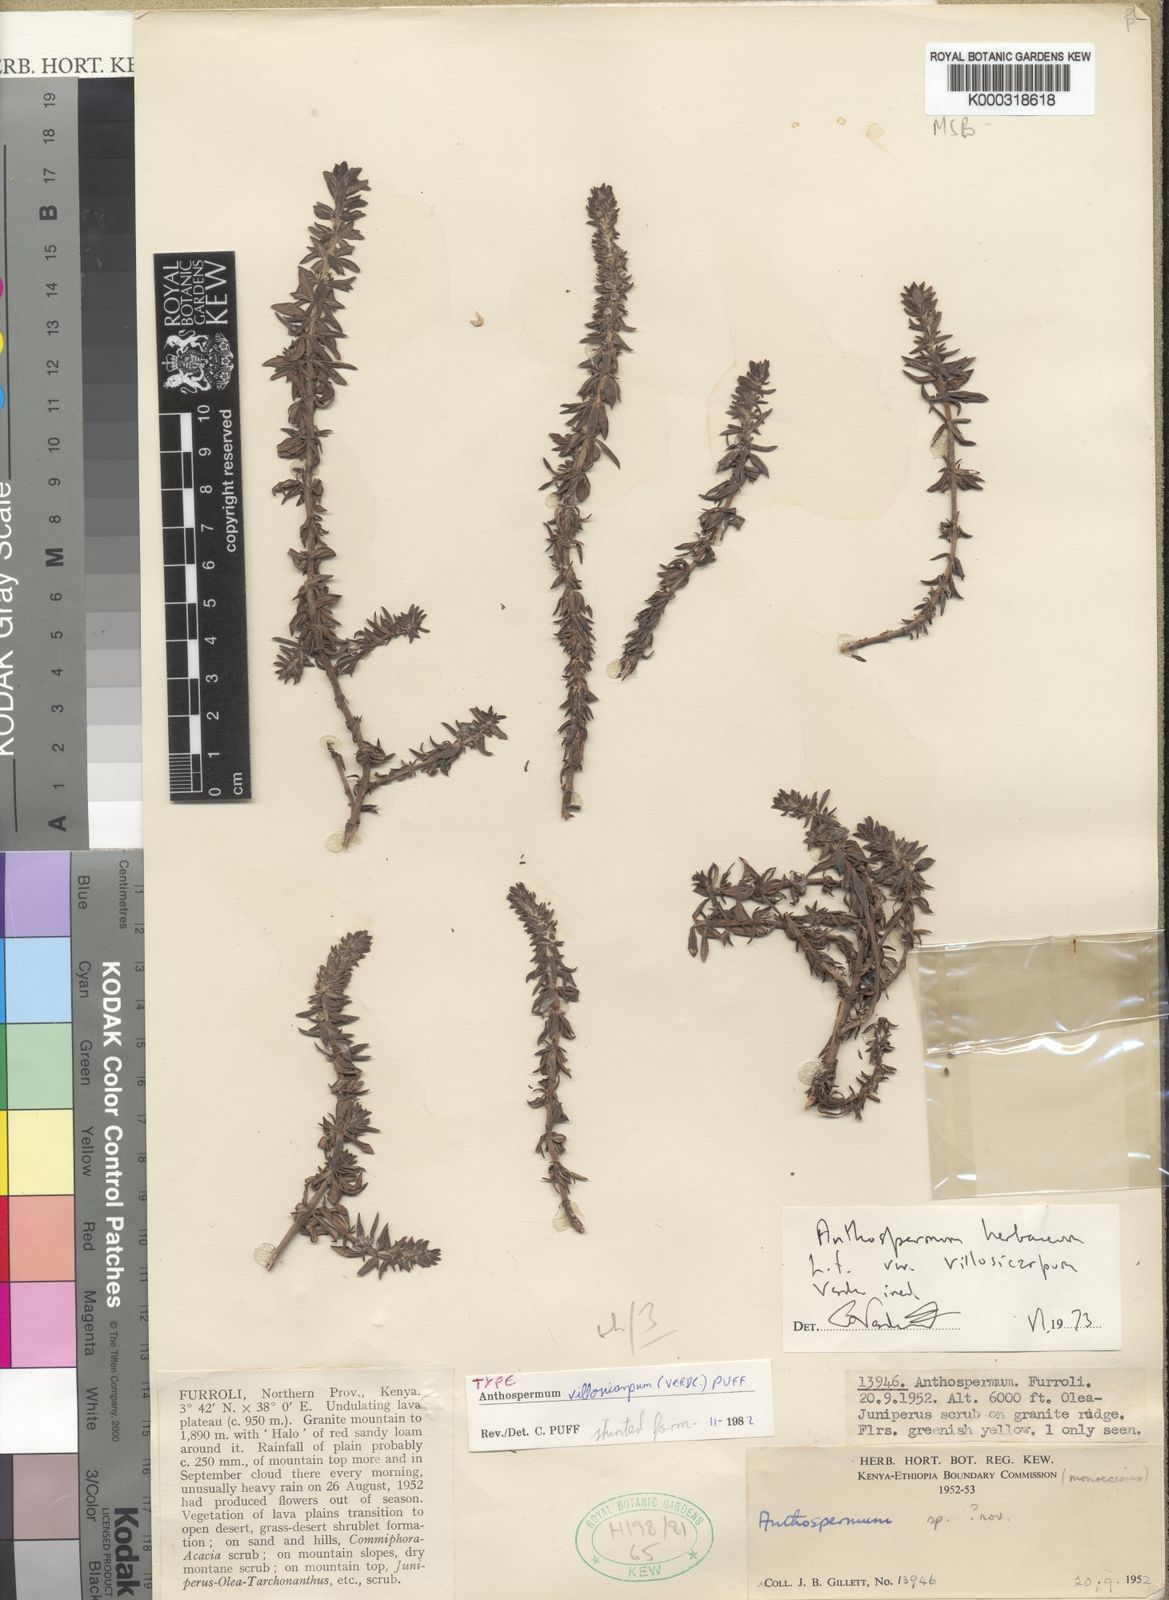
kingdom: Plantae
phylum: Tracheophyta
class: Magnoliopsida
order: Gentianales
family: Rubiaceae
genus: Canthium
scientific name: Canthium
